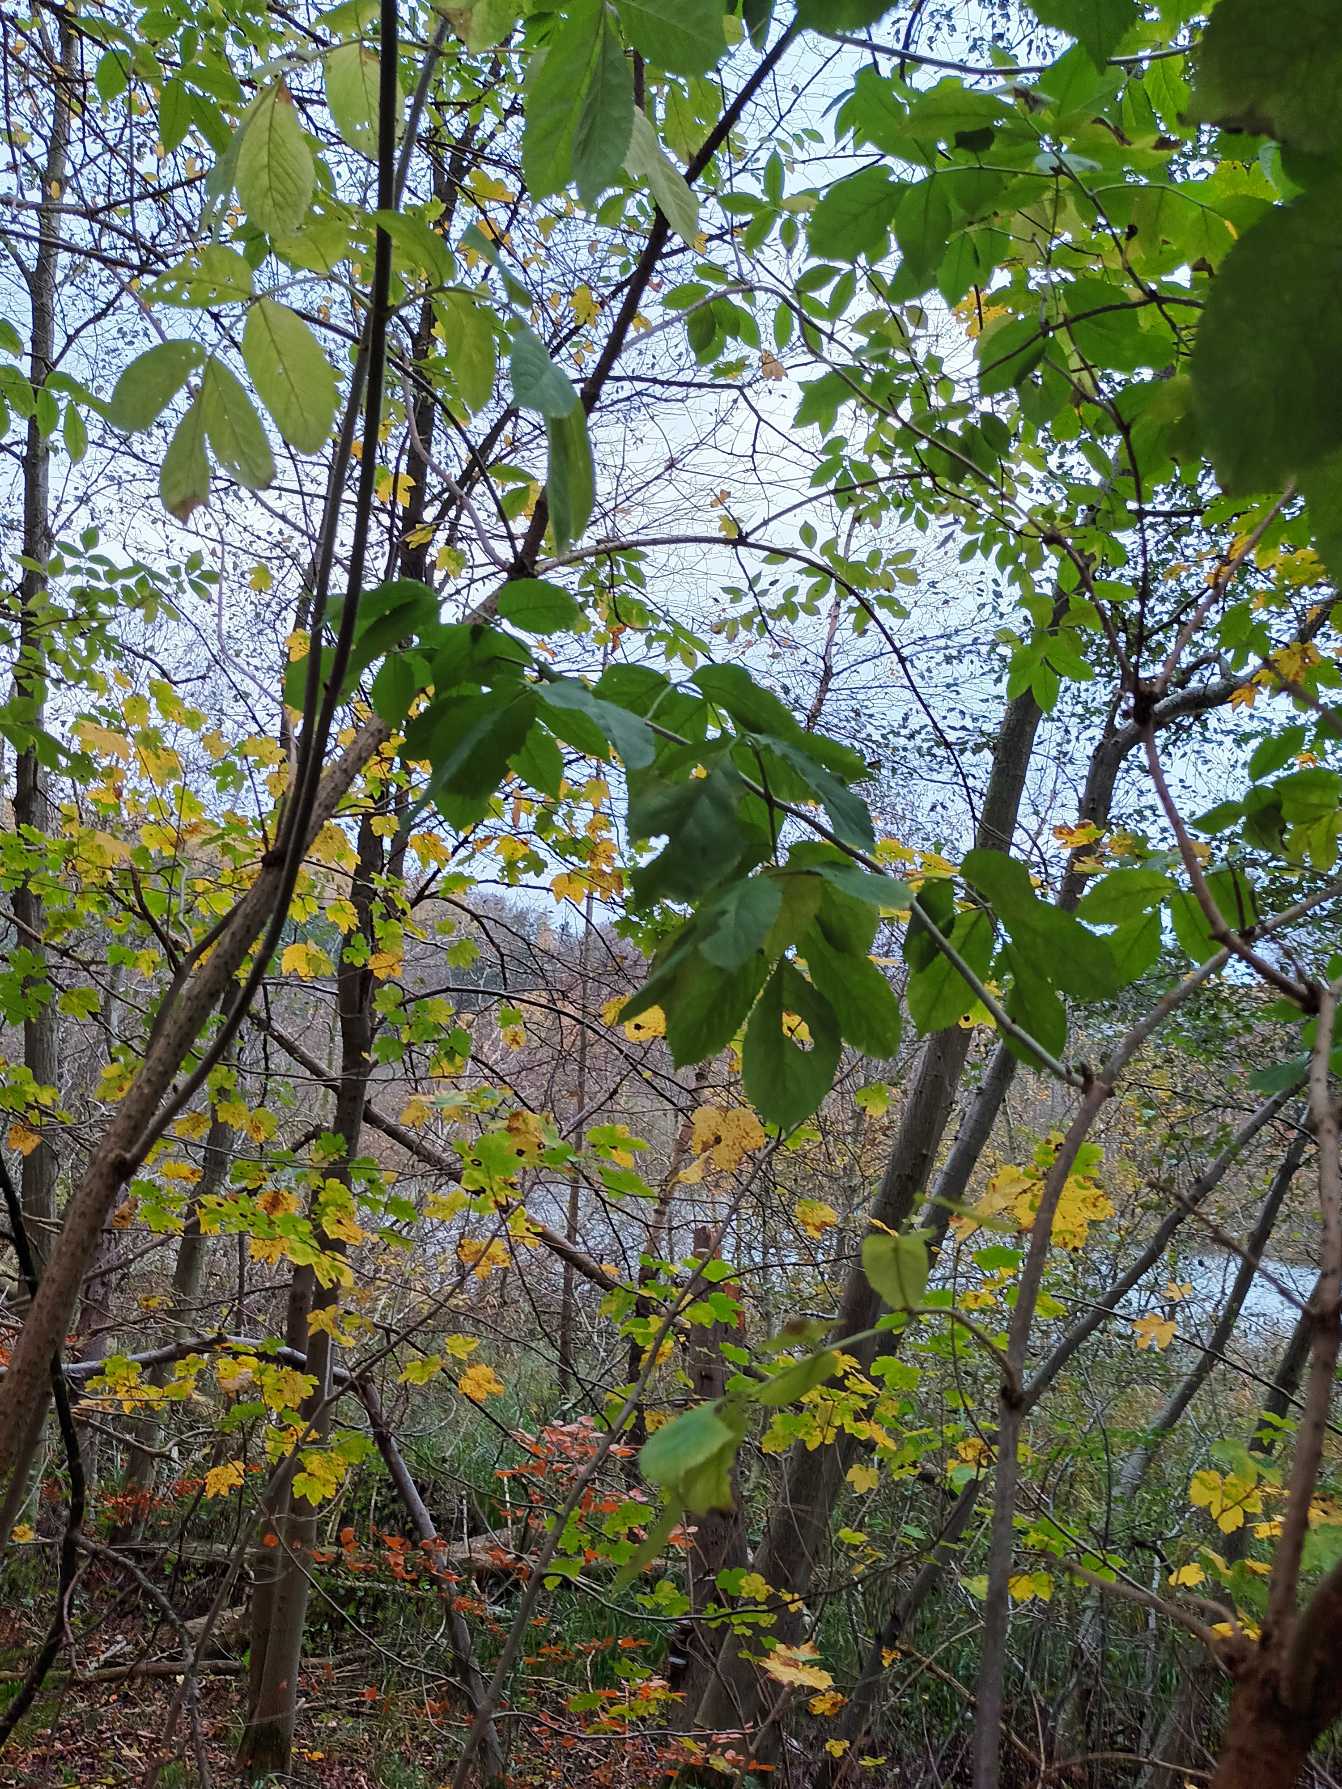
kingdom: Plantae
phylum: Tracheophyta
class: Magnoliopsida
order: Dipsacales
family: Viburnaceae
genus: Sambucus
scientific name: Sambucus nigra
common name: Almindelig hyld
